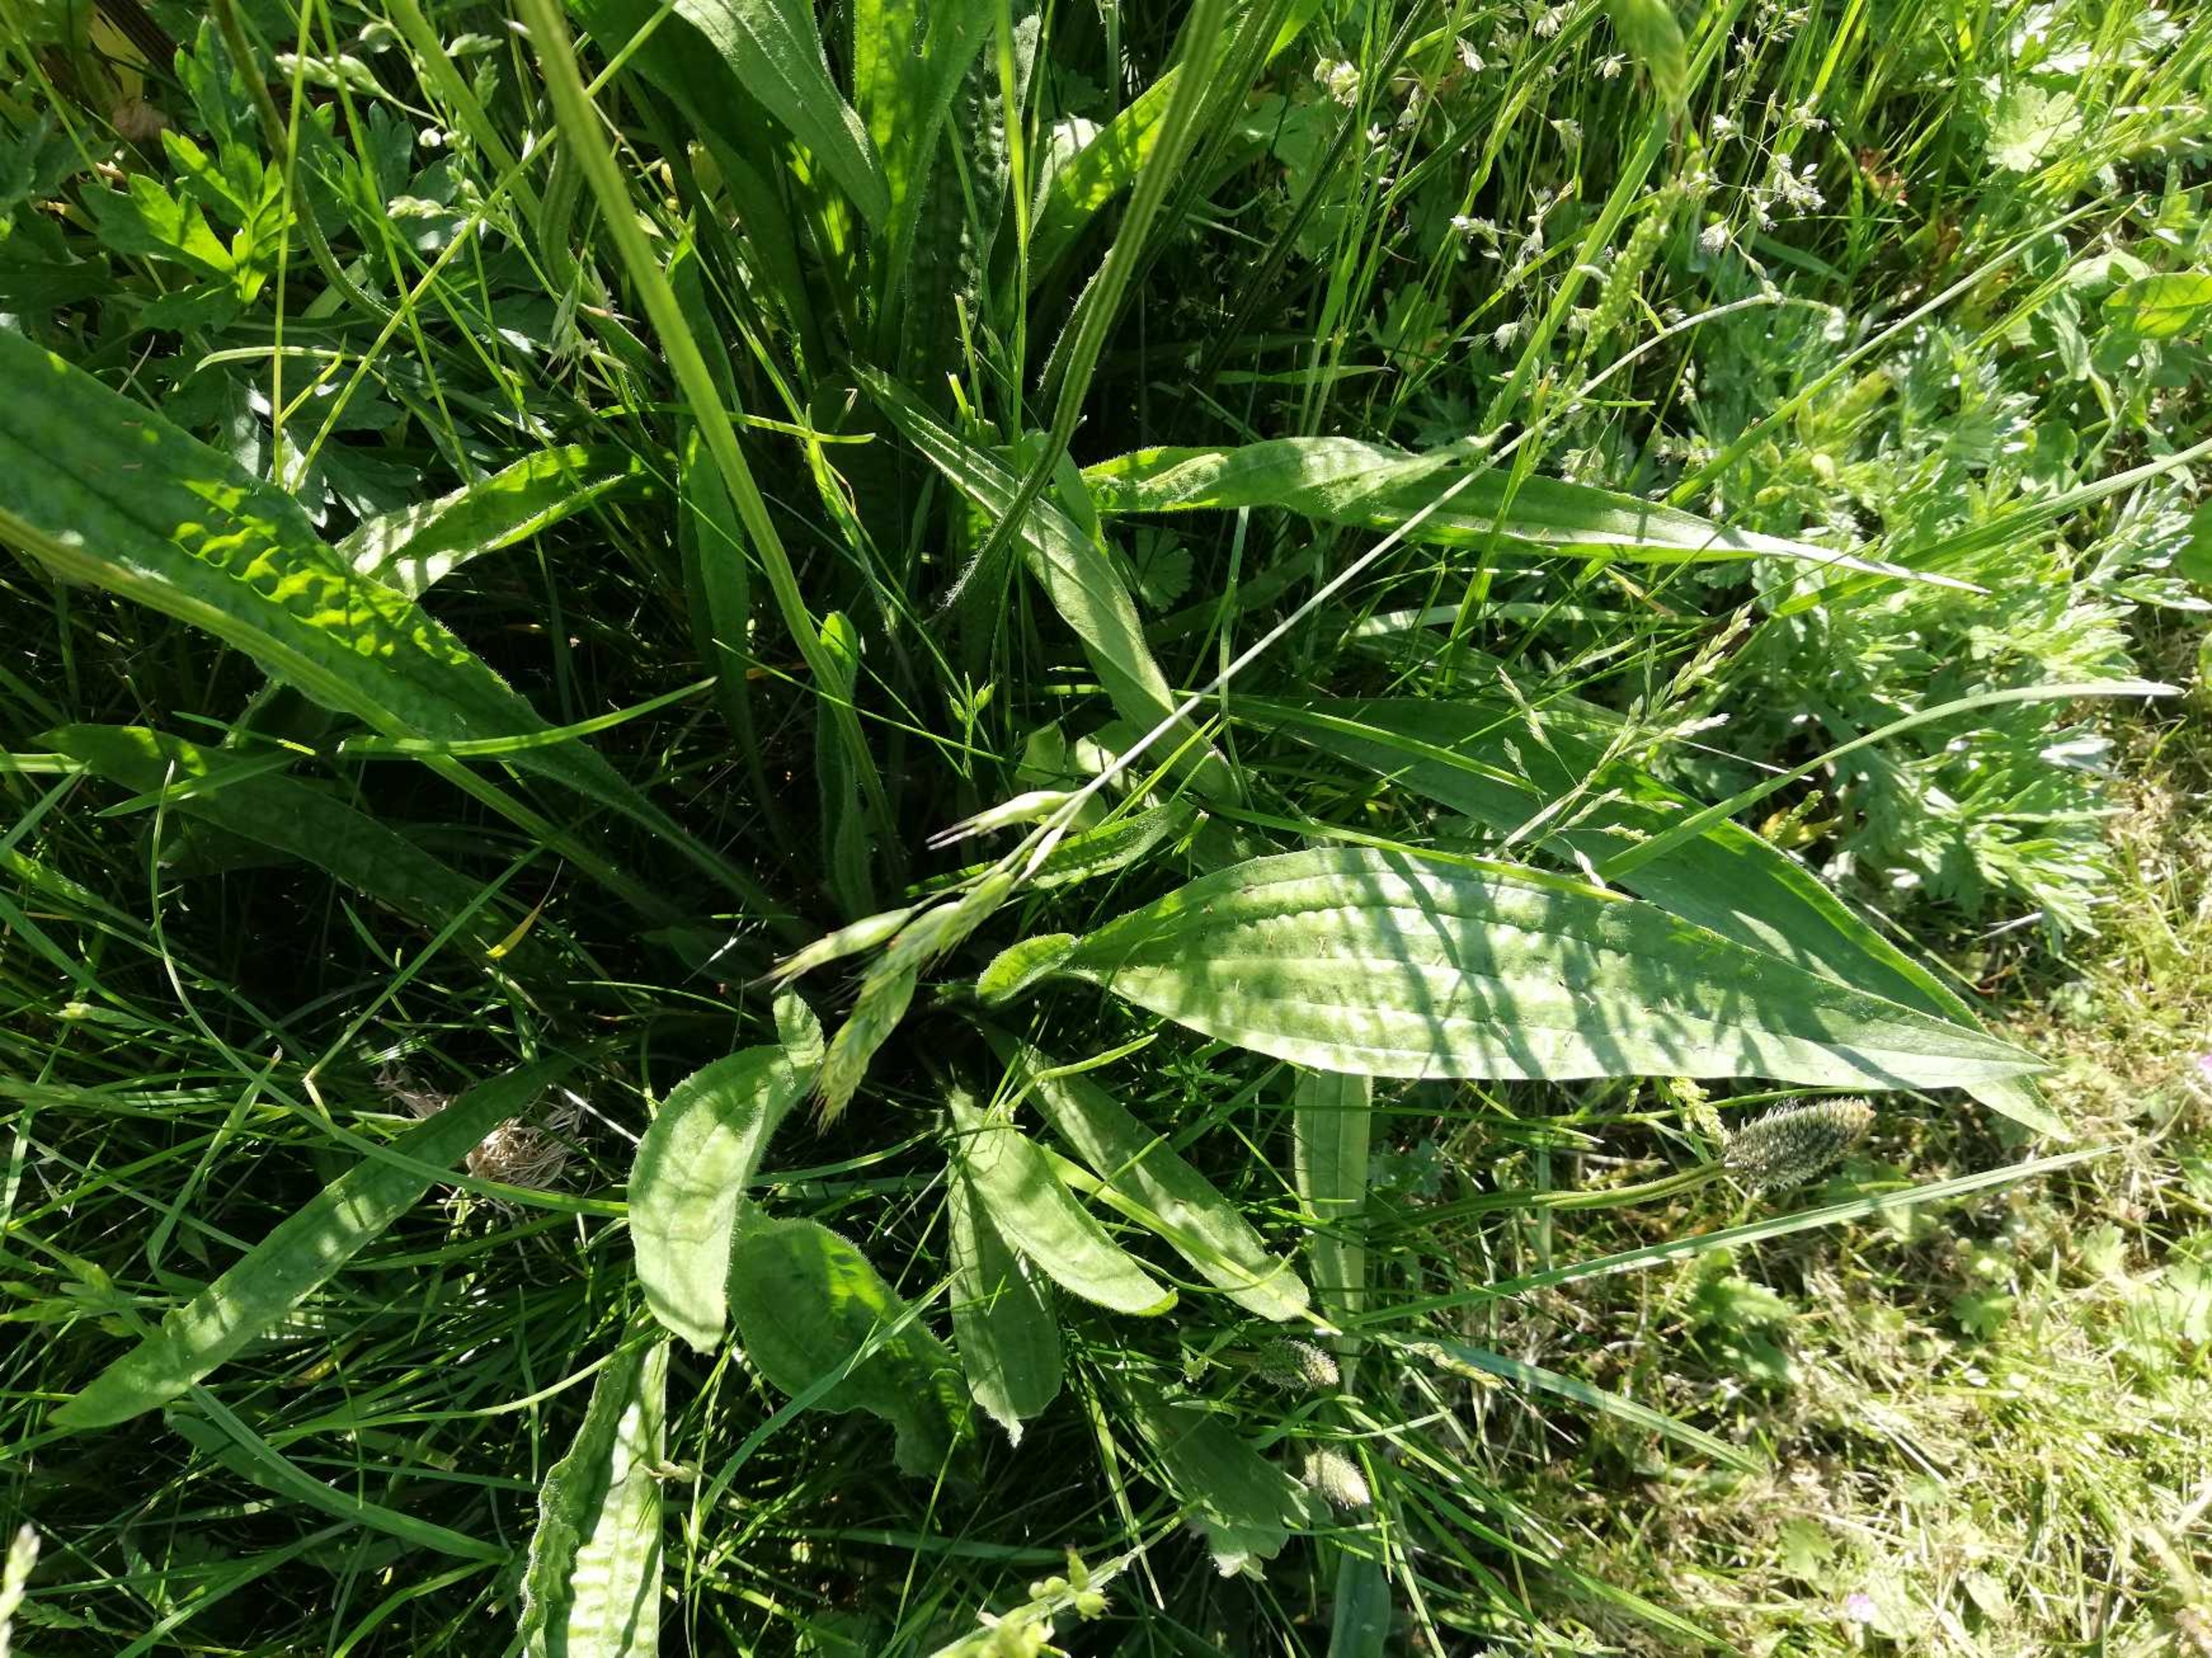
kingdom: Plantae
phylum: Tracheophyta
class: Magnoliopsida
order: Lamiales
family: Plantaginaceae
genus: Plantago
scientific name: Plantago lanceolata
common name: Lancet-vejbred
